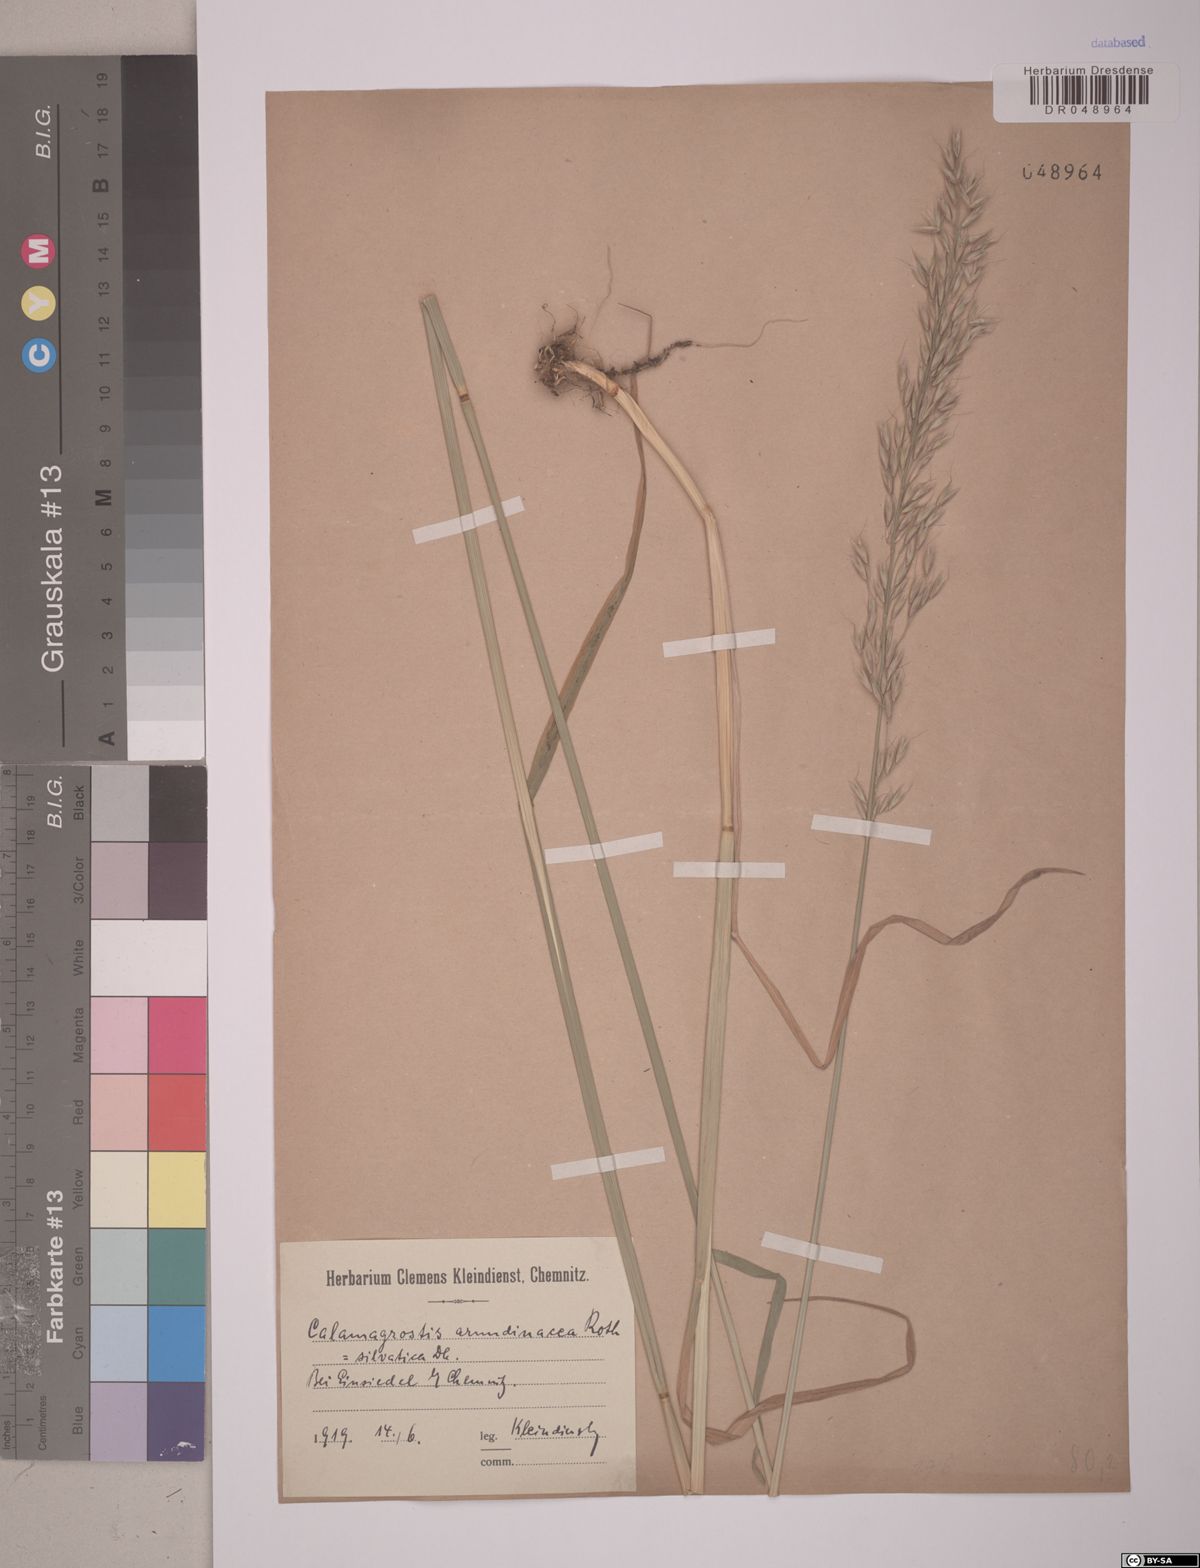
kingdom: Plantae
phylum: Tracheophyta
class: Liliopsida
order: Poales
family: Poaceae
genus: Calamagrostis
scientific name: Calamagrostis arundinacea
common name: Metskastik
